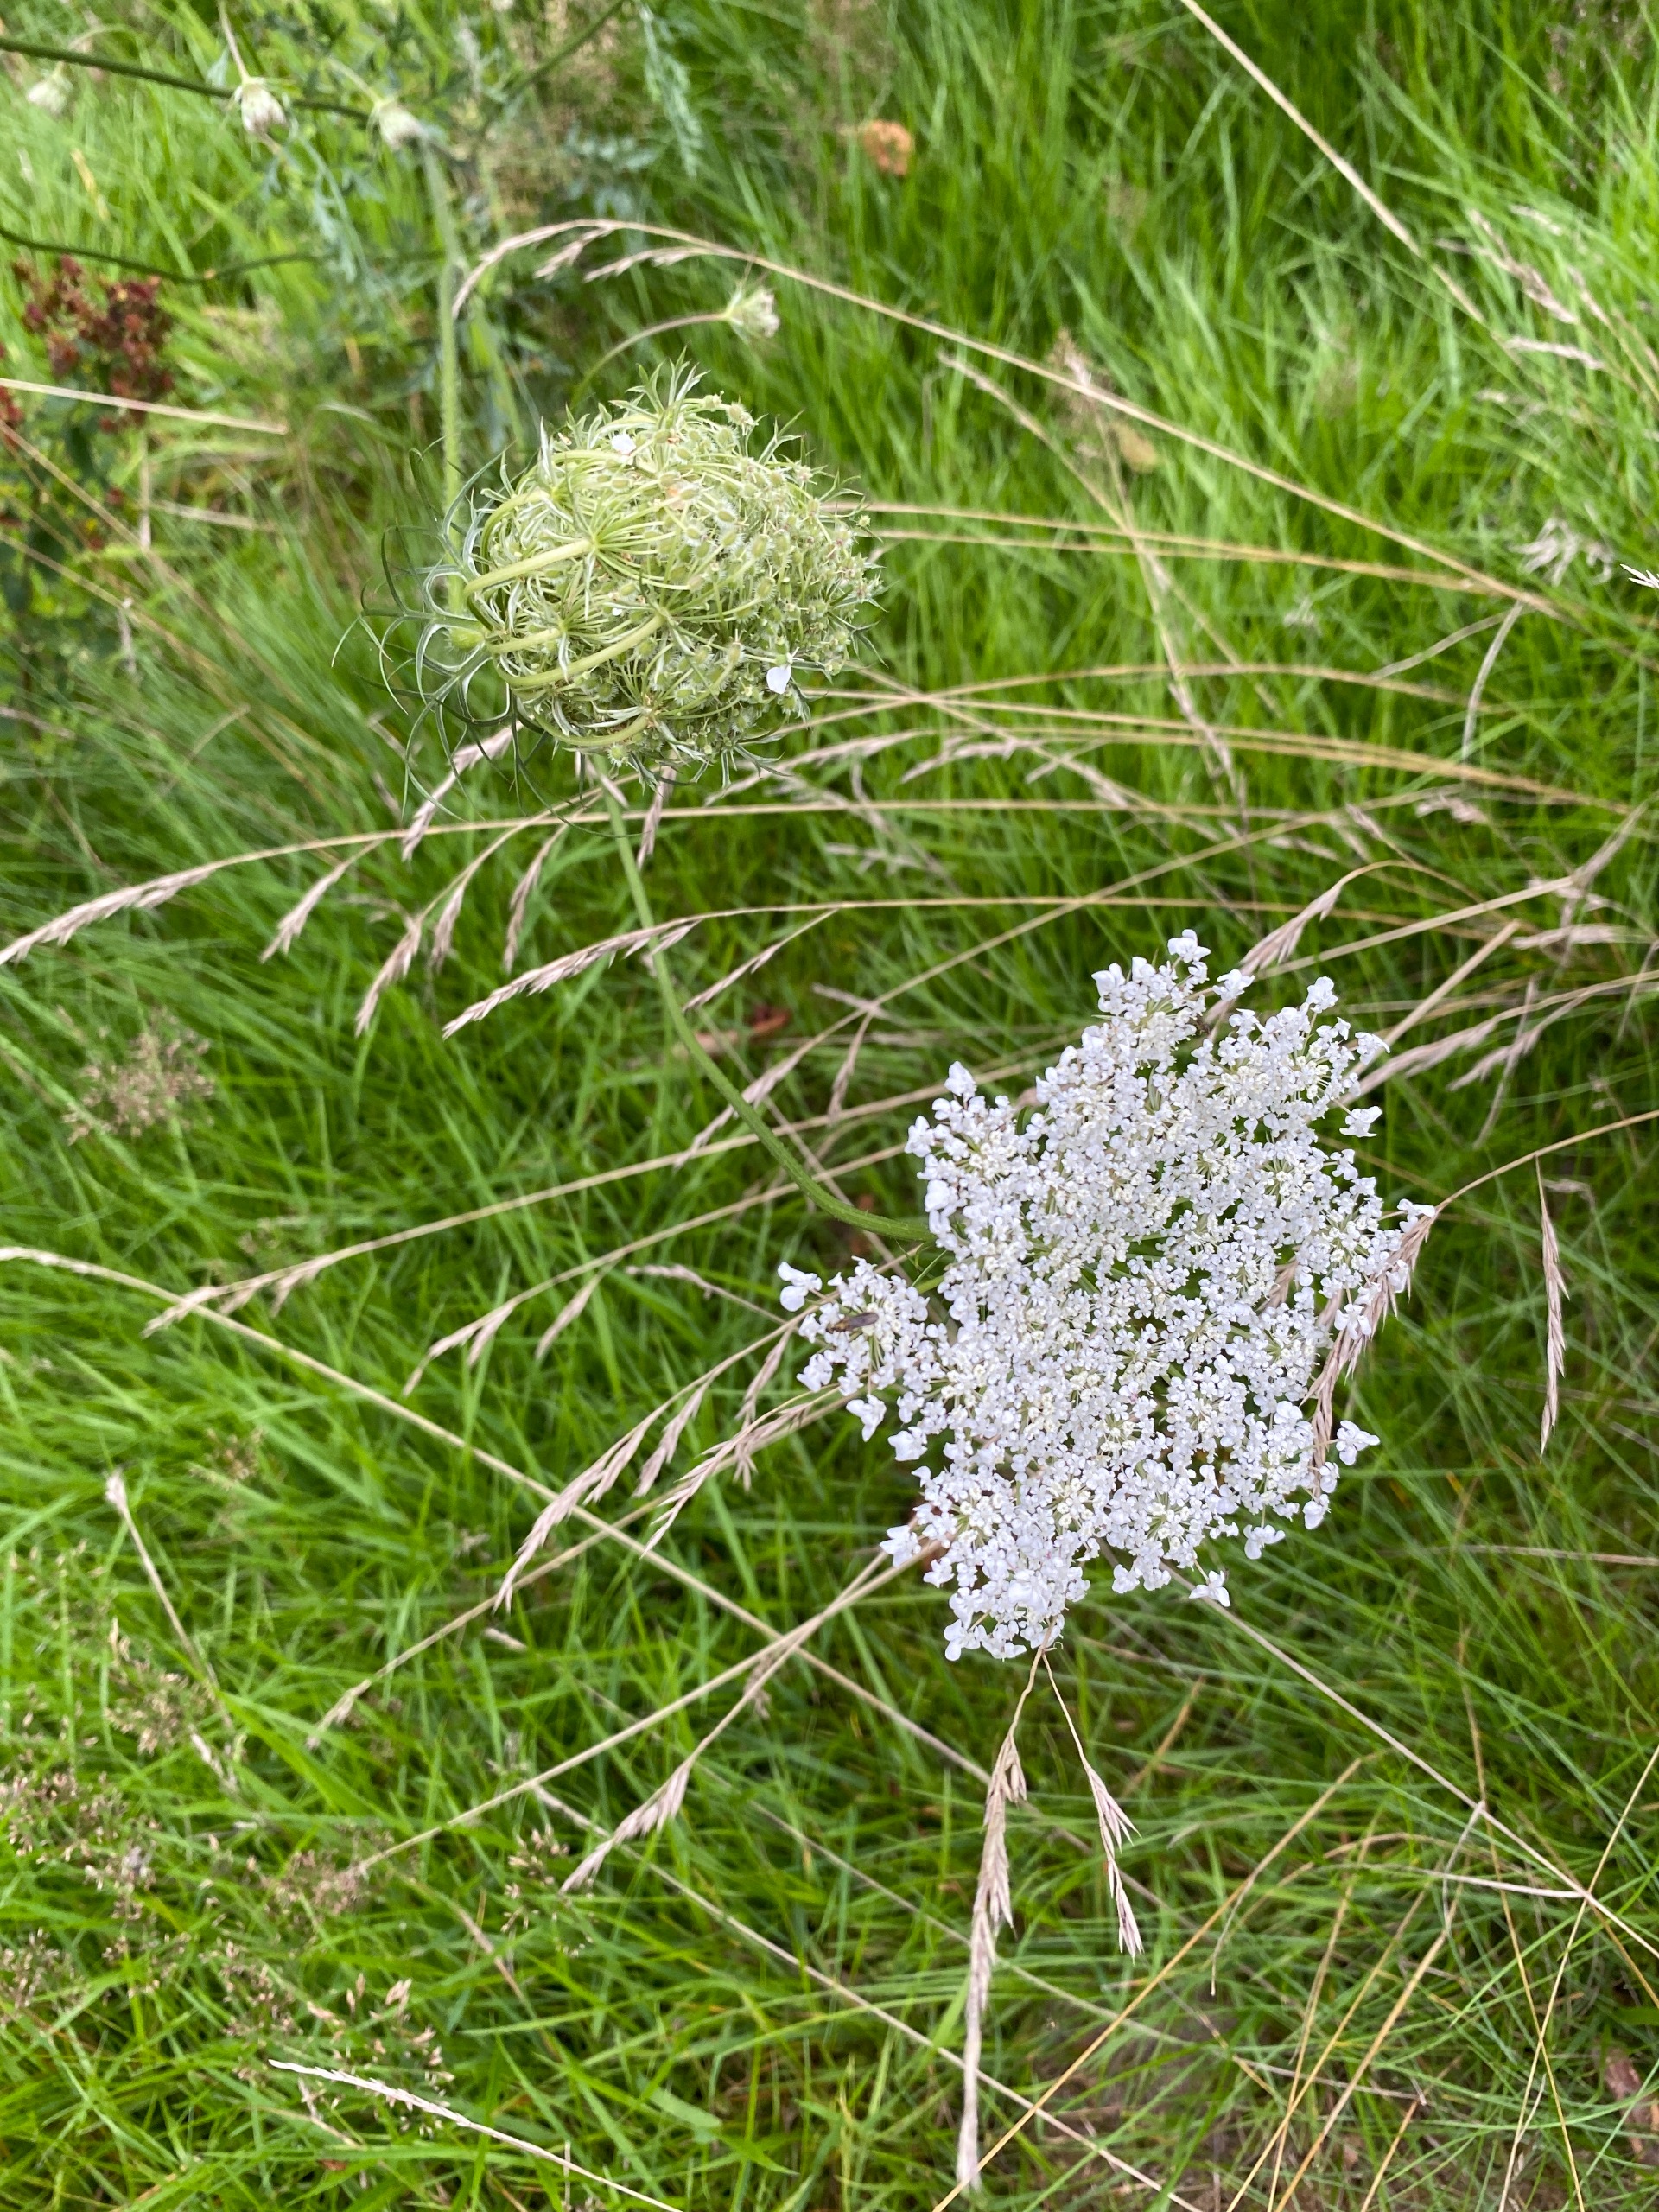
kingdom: Plantae
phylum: Tracheophyta
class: Magnoliopsida
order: Apiales
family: Apiaceae
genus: Daucus
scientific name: Daucus carota
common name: Gulerod
